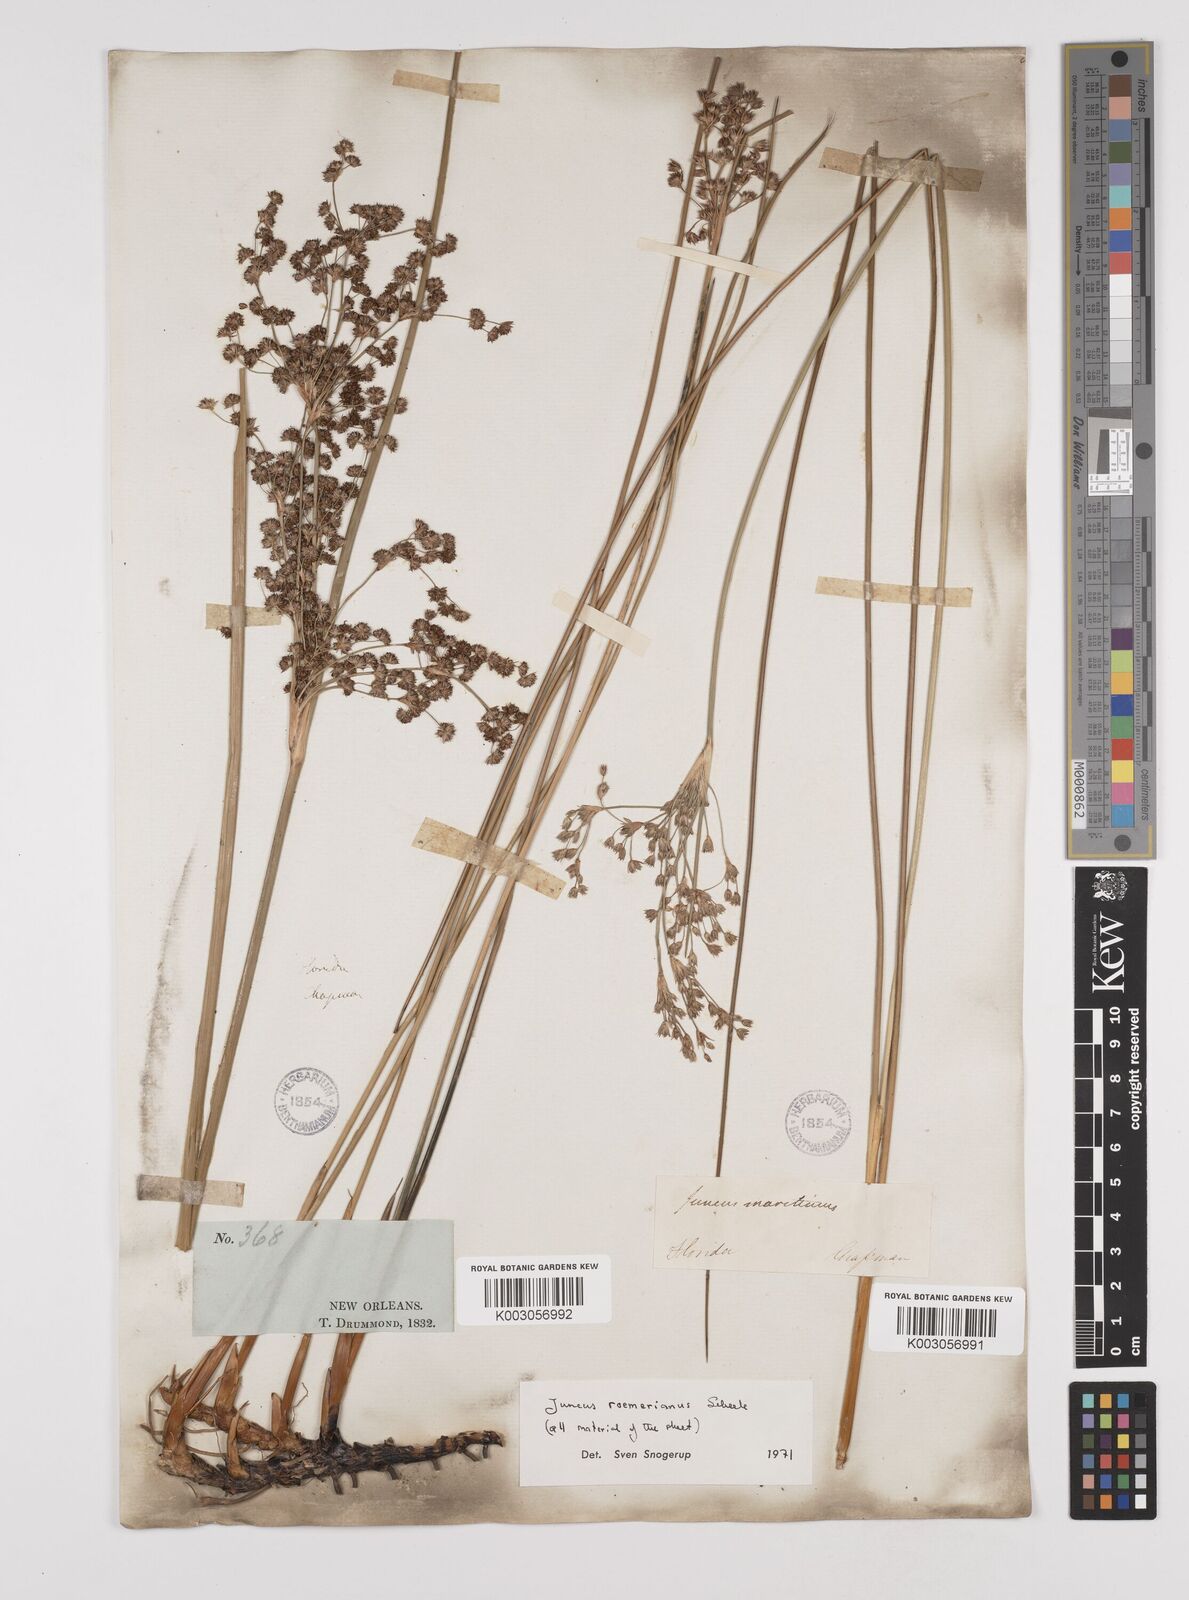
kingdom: Plantae
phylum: Tracheophyta
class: Liliopsida
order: Poales
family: Juncaceae
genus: Juncus
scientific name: Juncus roemerianus
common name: Roemer's rush
